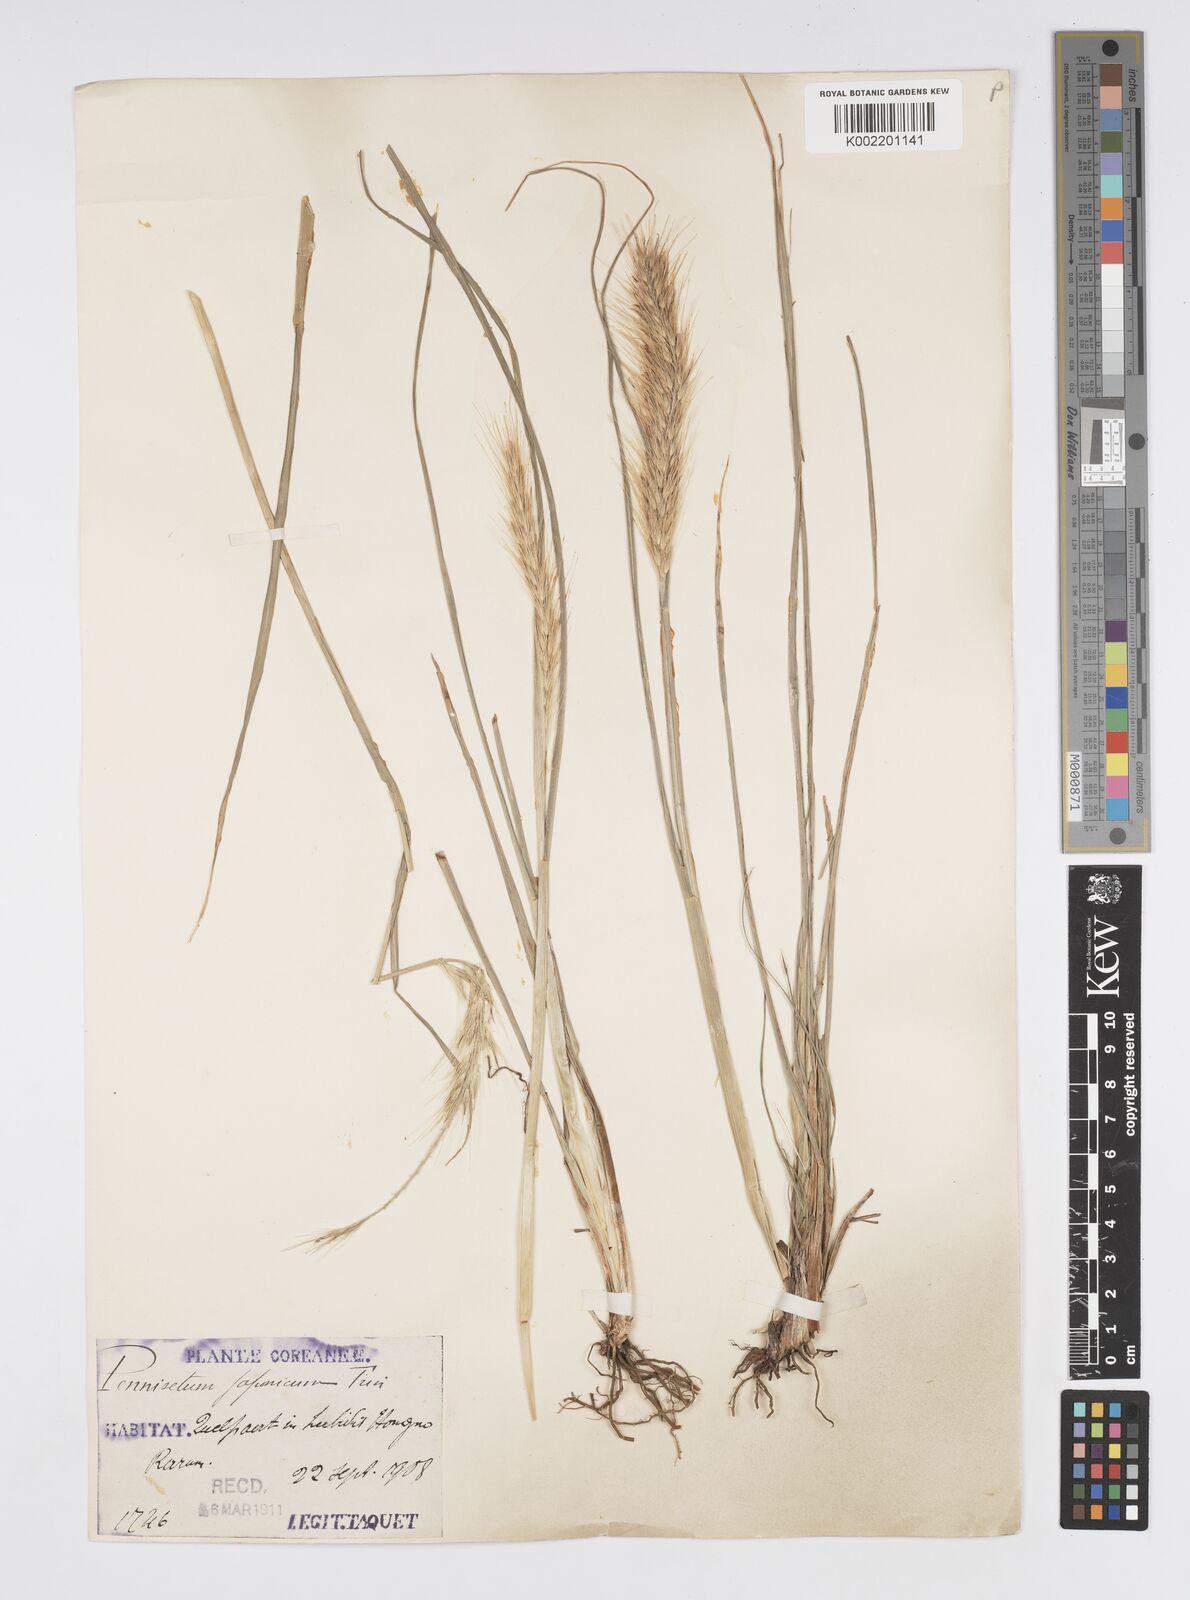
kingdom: Plantae
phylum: Tracheophyta
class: Liliopsida
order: Poales
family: Poaceae
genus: Cenchrus
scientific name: Cenchrus alopecuroides
